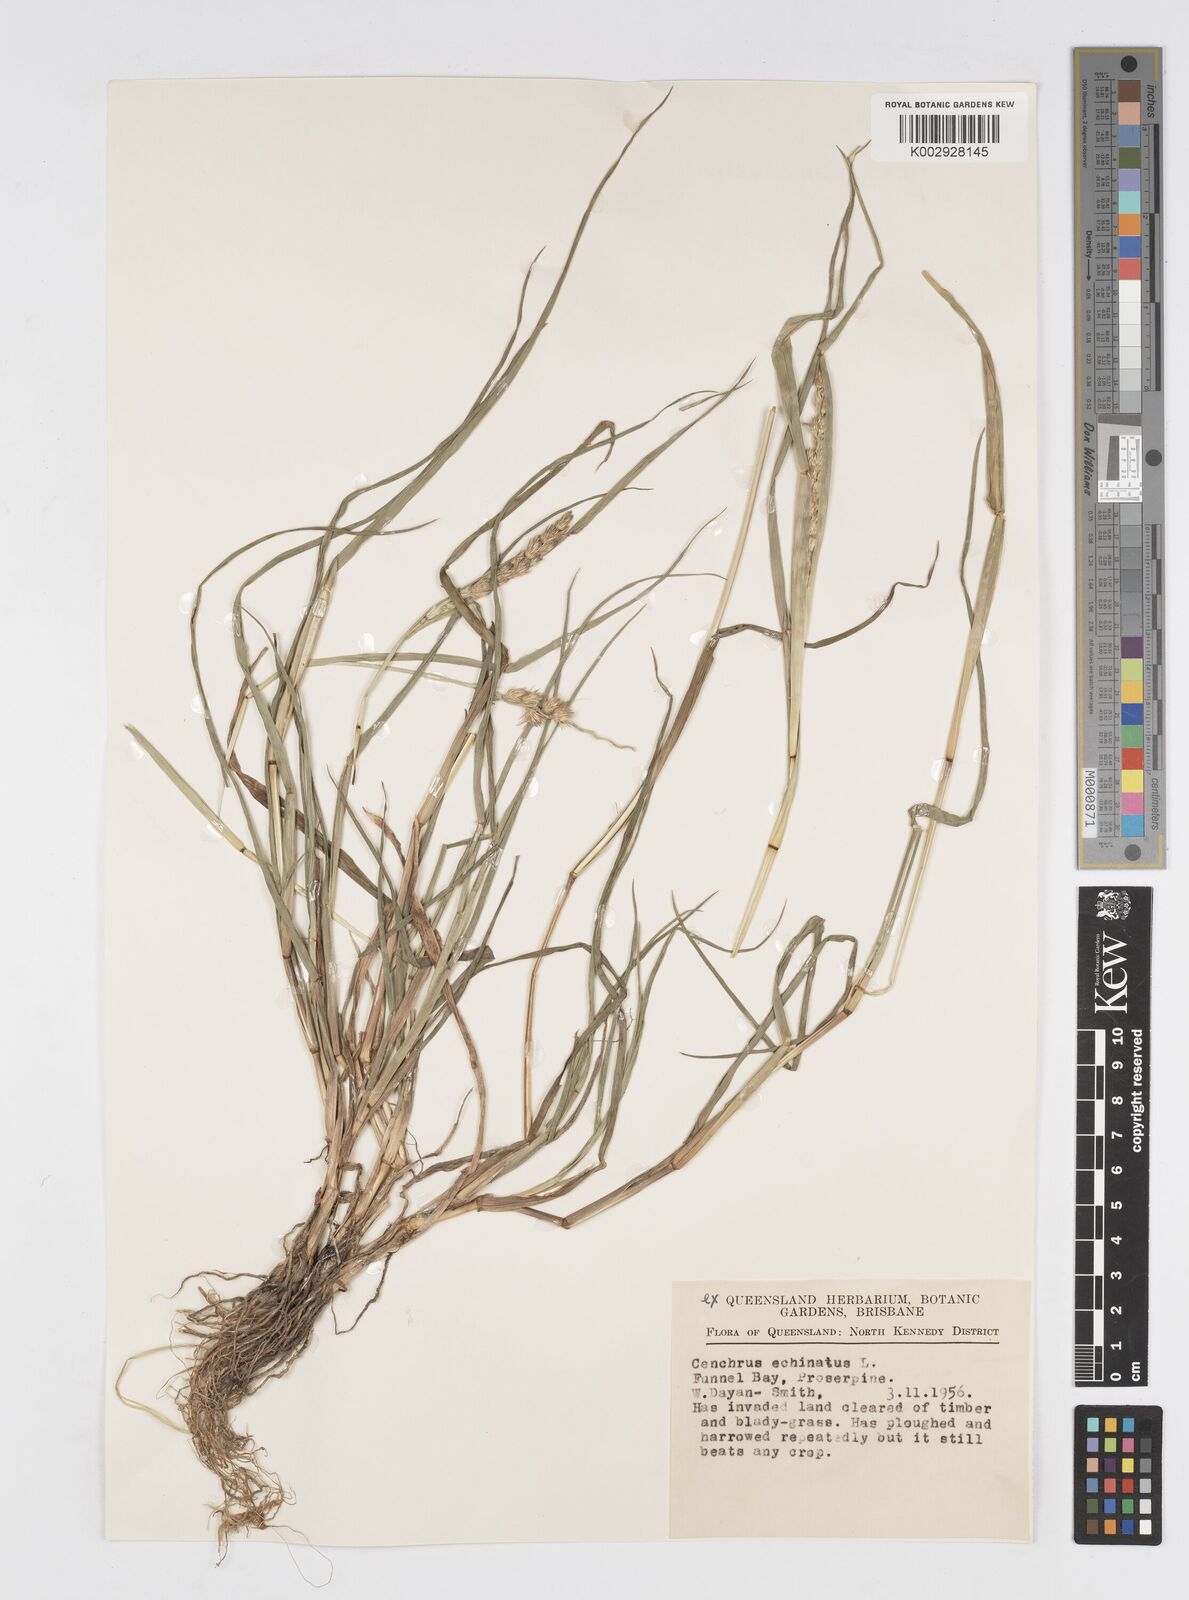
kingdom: Plantae
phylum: Tracheophyta
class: Liliopsida
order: Poales
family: Poaceae
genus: Cenchrus
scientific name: Cenchrus echinatus
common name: Southern sandbur
